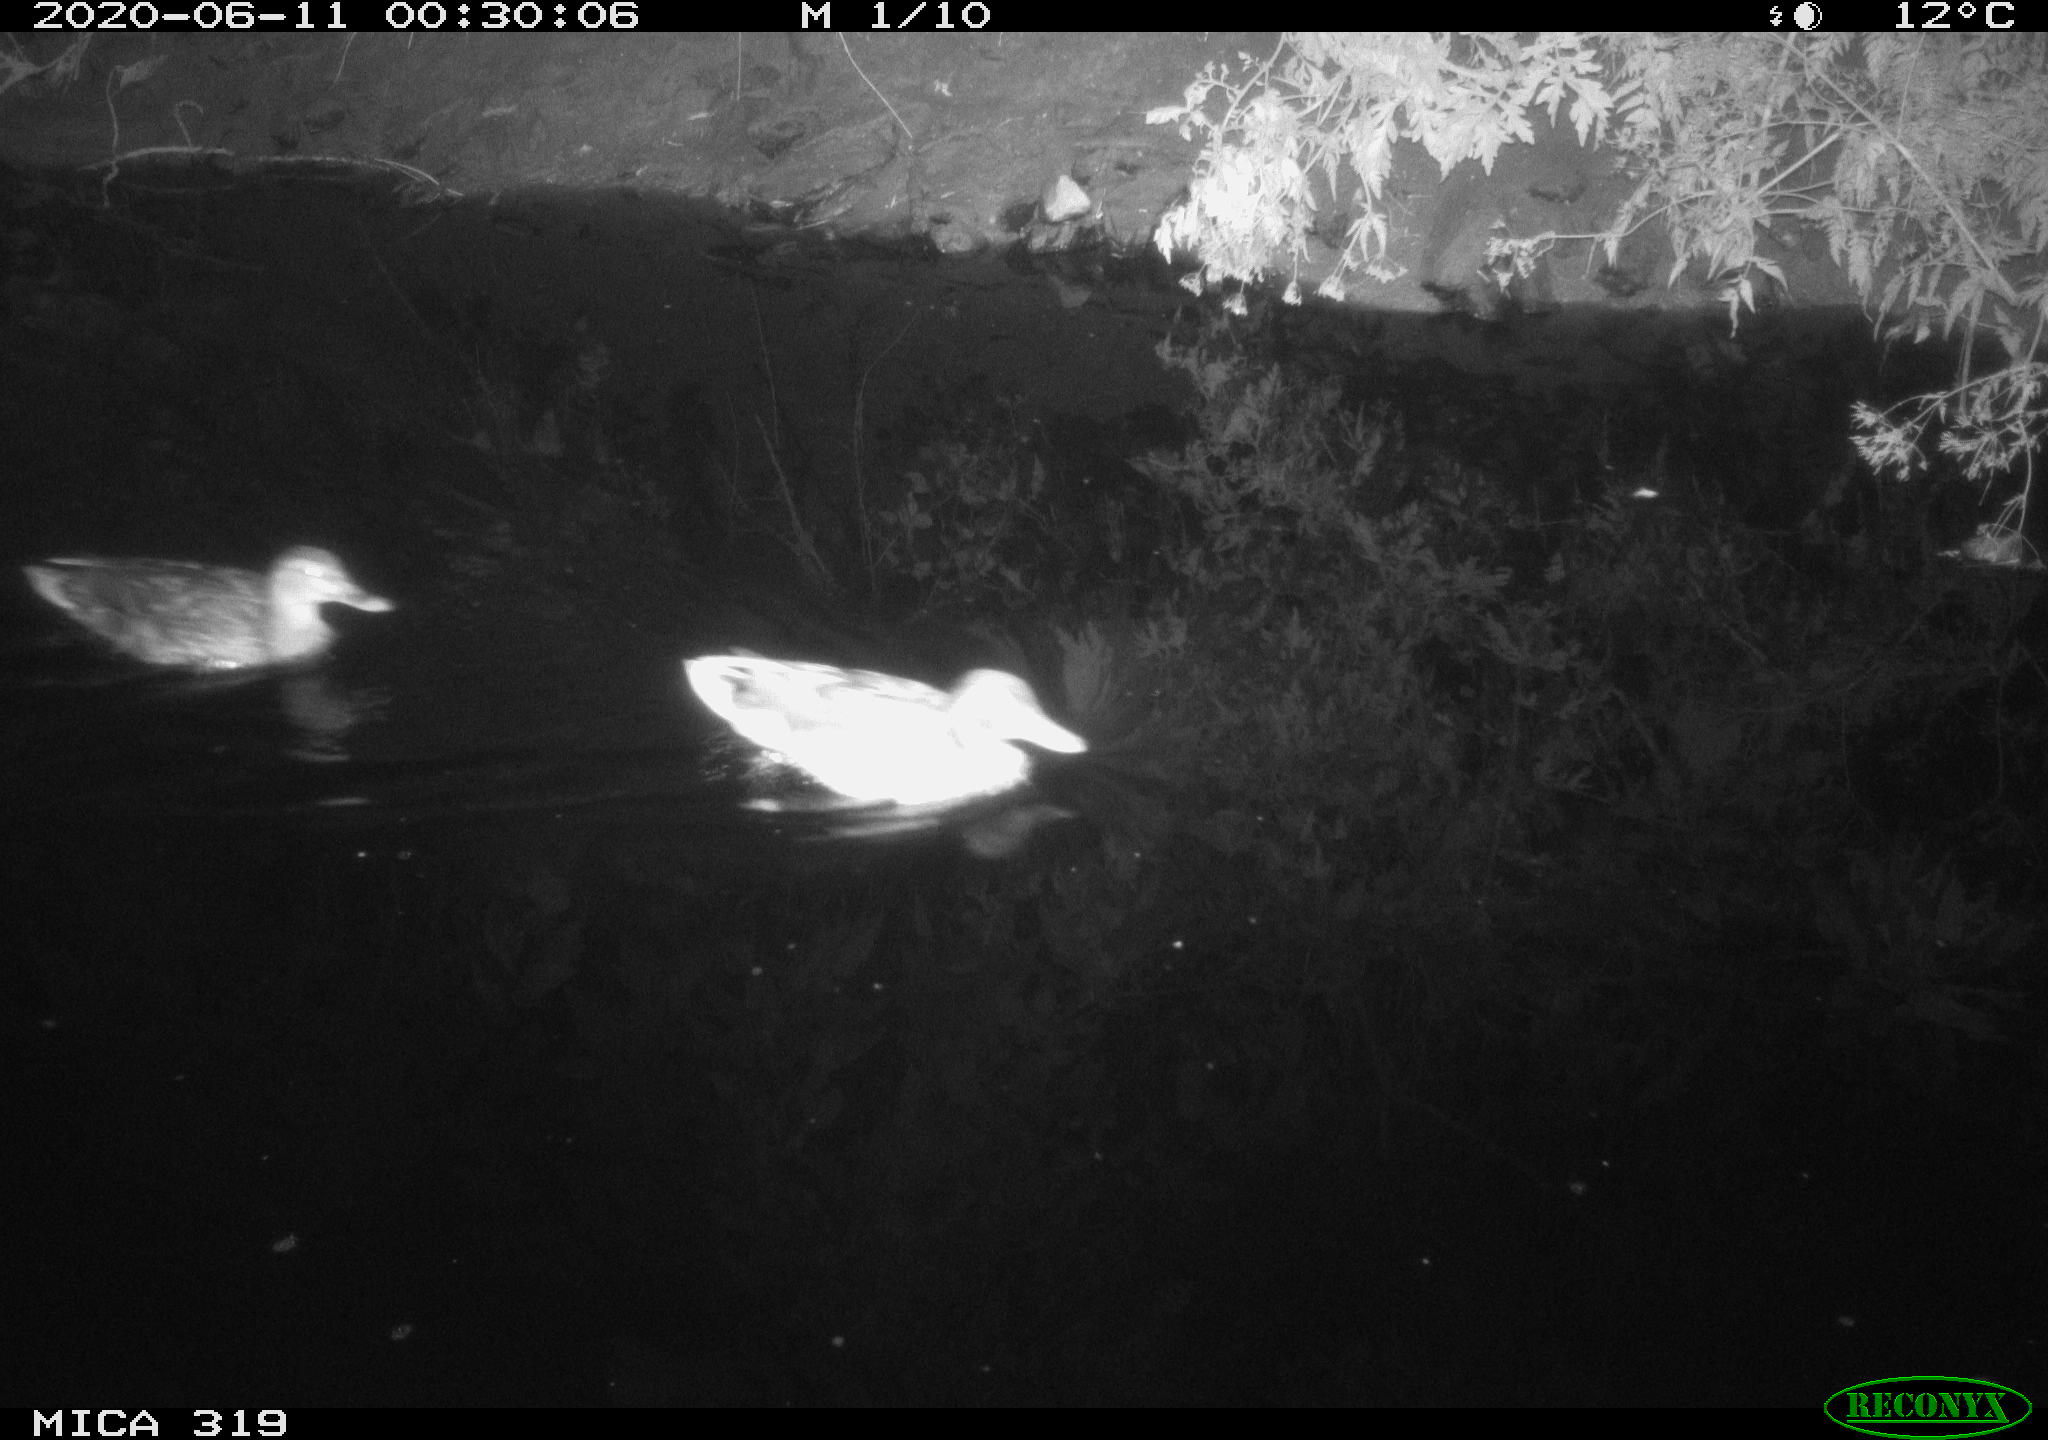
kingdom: Animalia
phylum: Chordata
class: Aves
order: Anseriformes
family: Anatidae
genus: Anas
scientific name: Anas platyrhynchos
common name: Mallard
